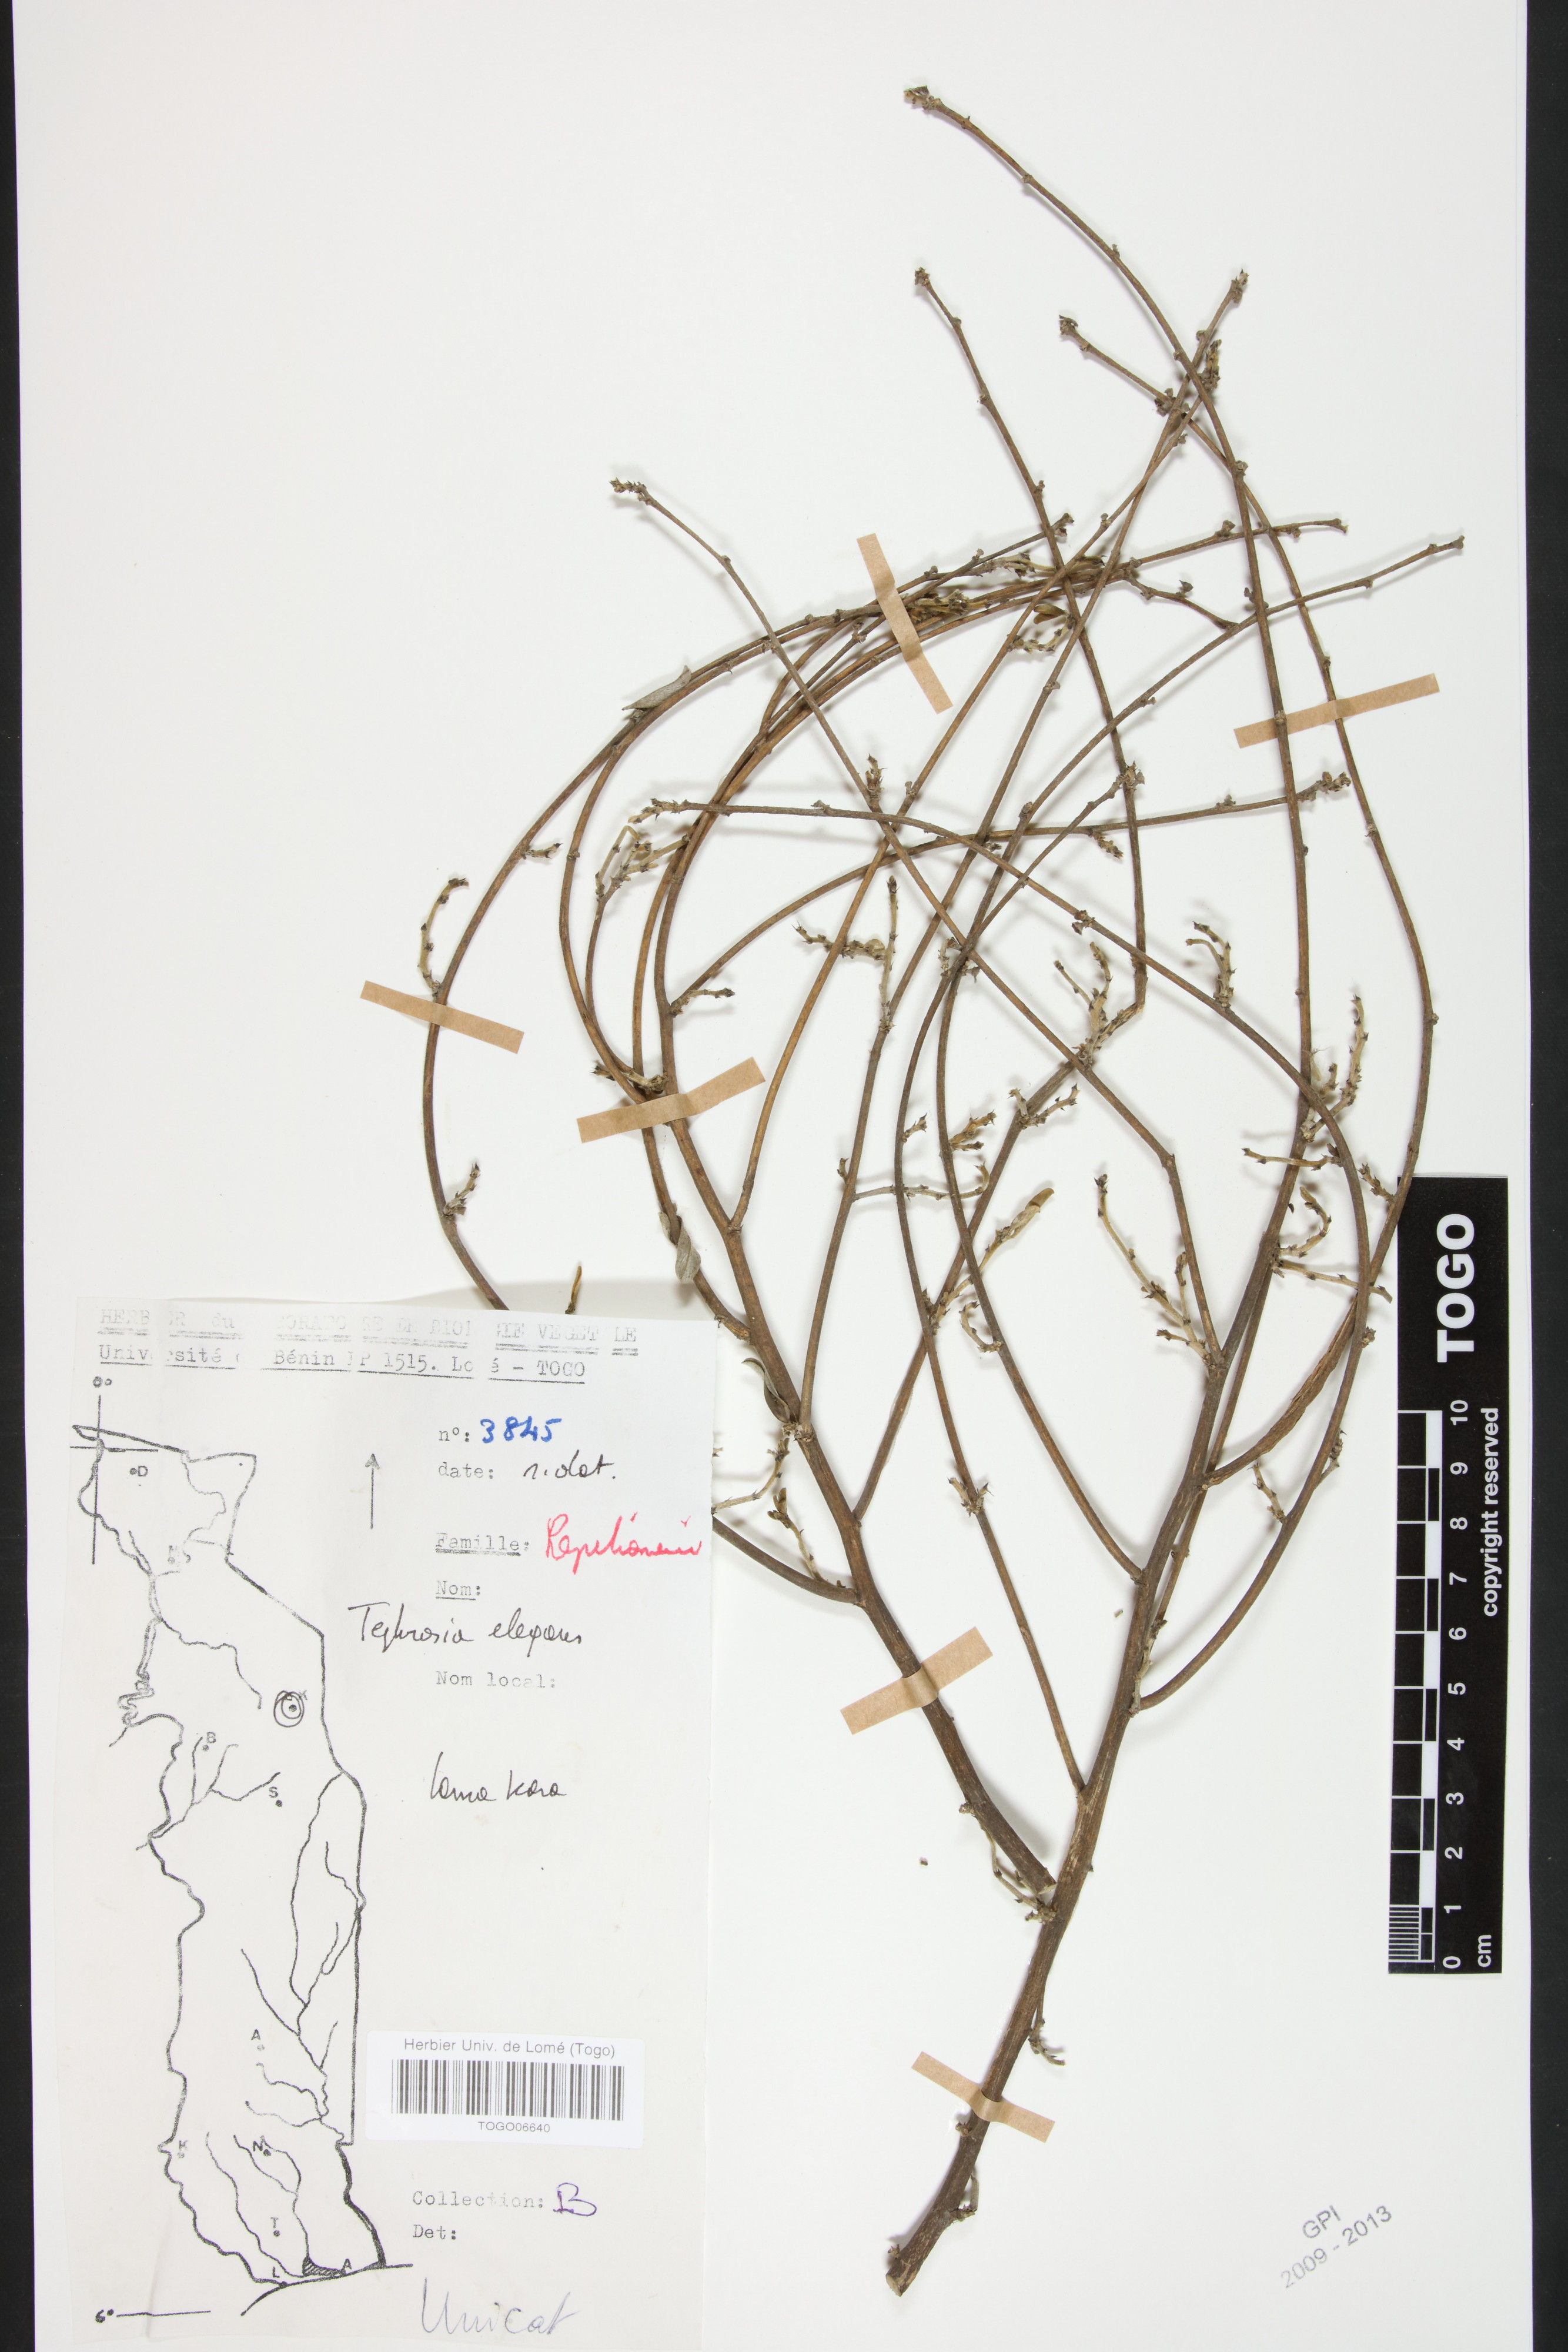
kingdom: Plantae
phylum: Tracheophyta
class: Magnoliopsida
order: Fabales
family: Fabaceae
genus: Tephrosia
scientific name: Tephrosia elegans
